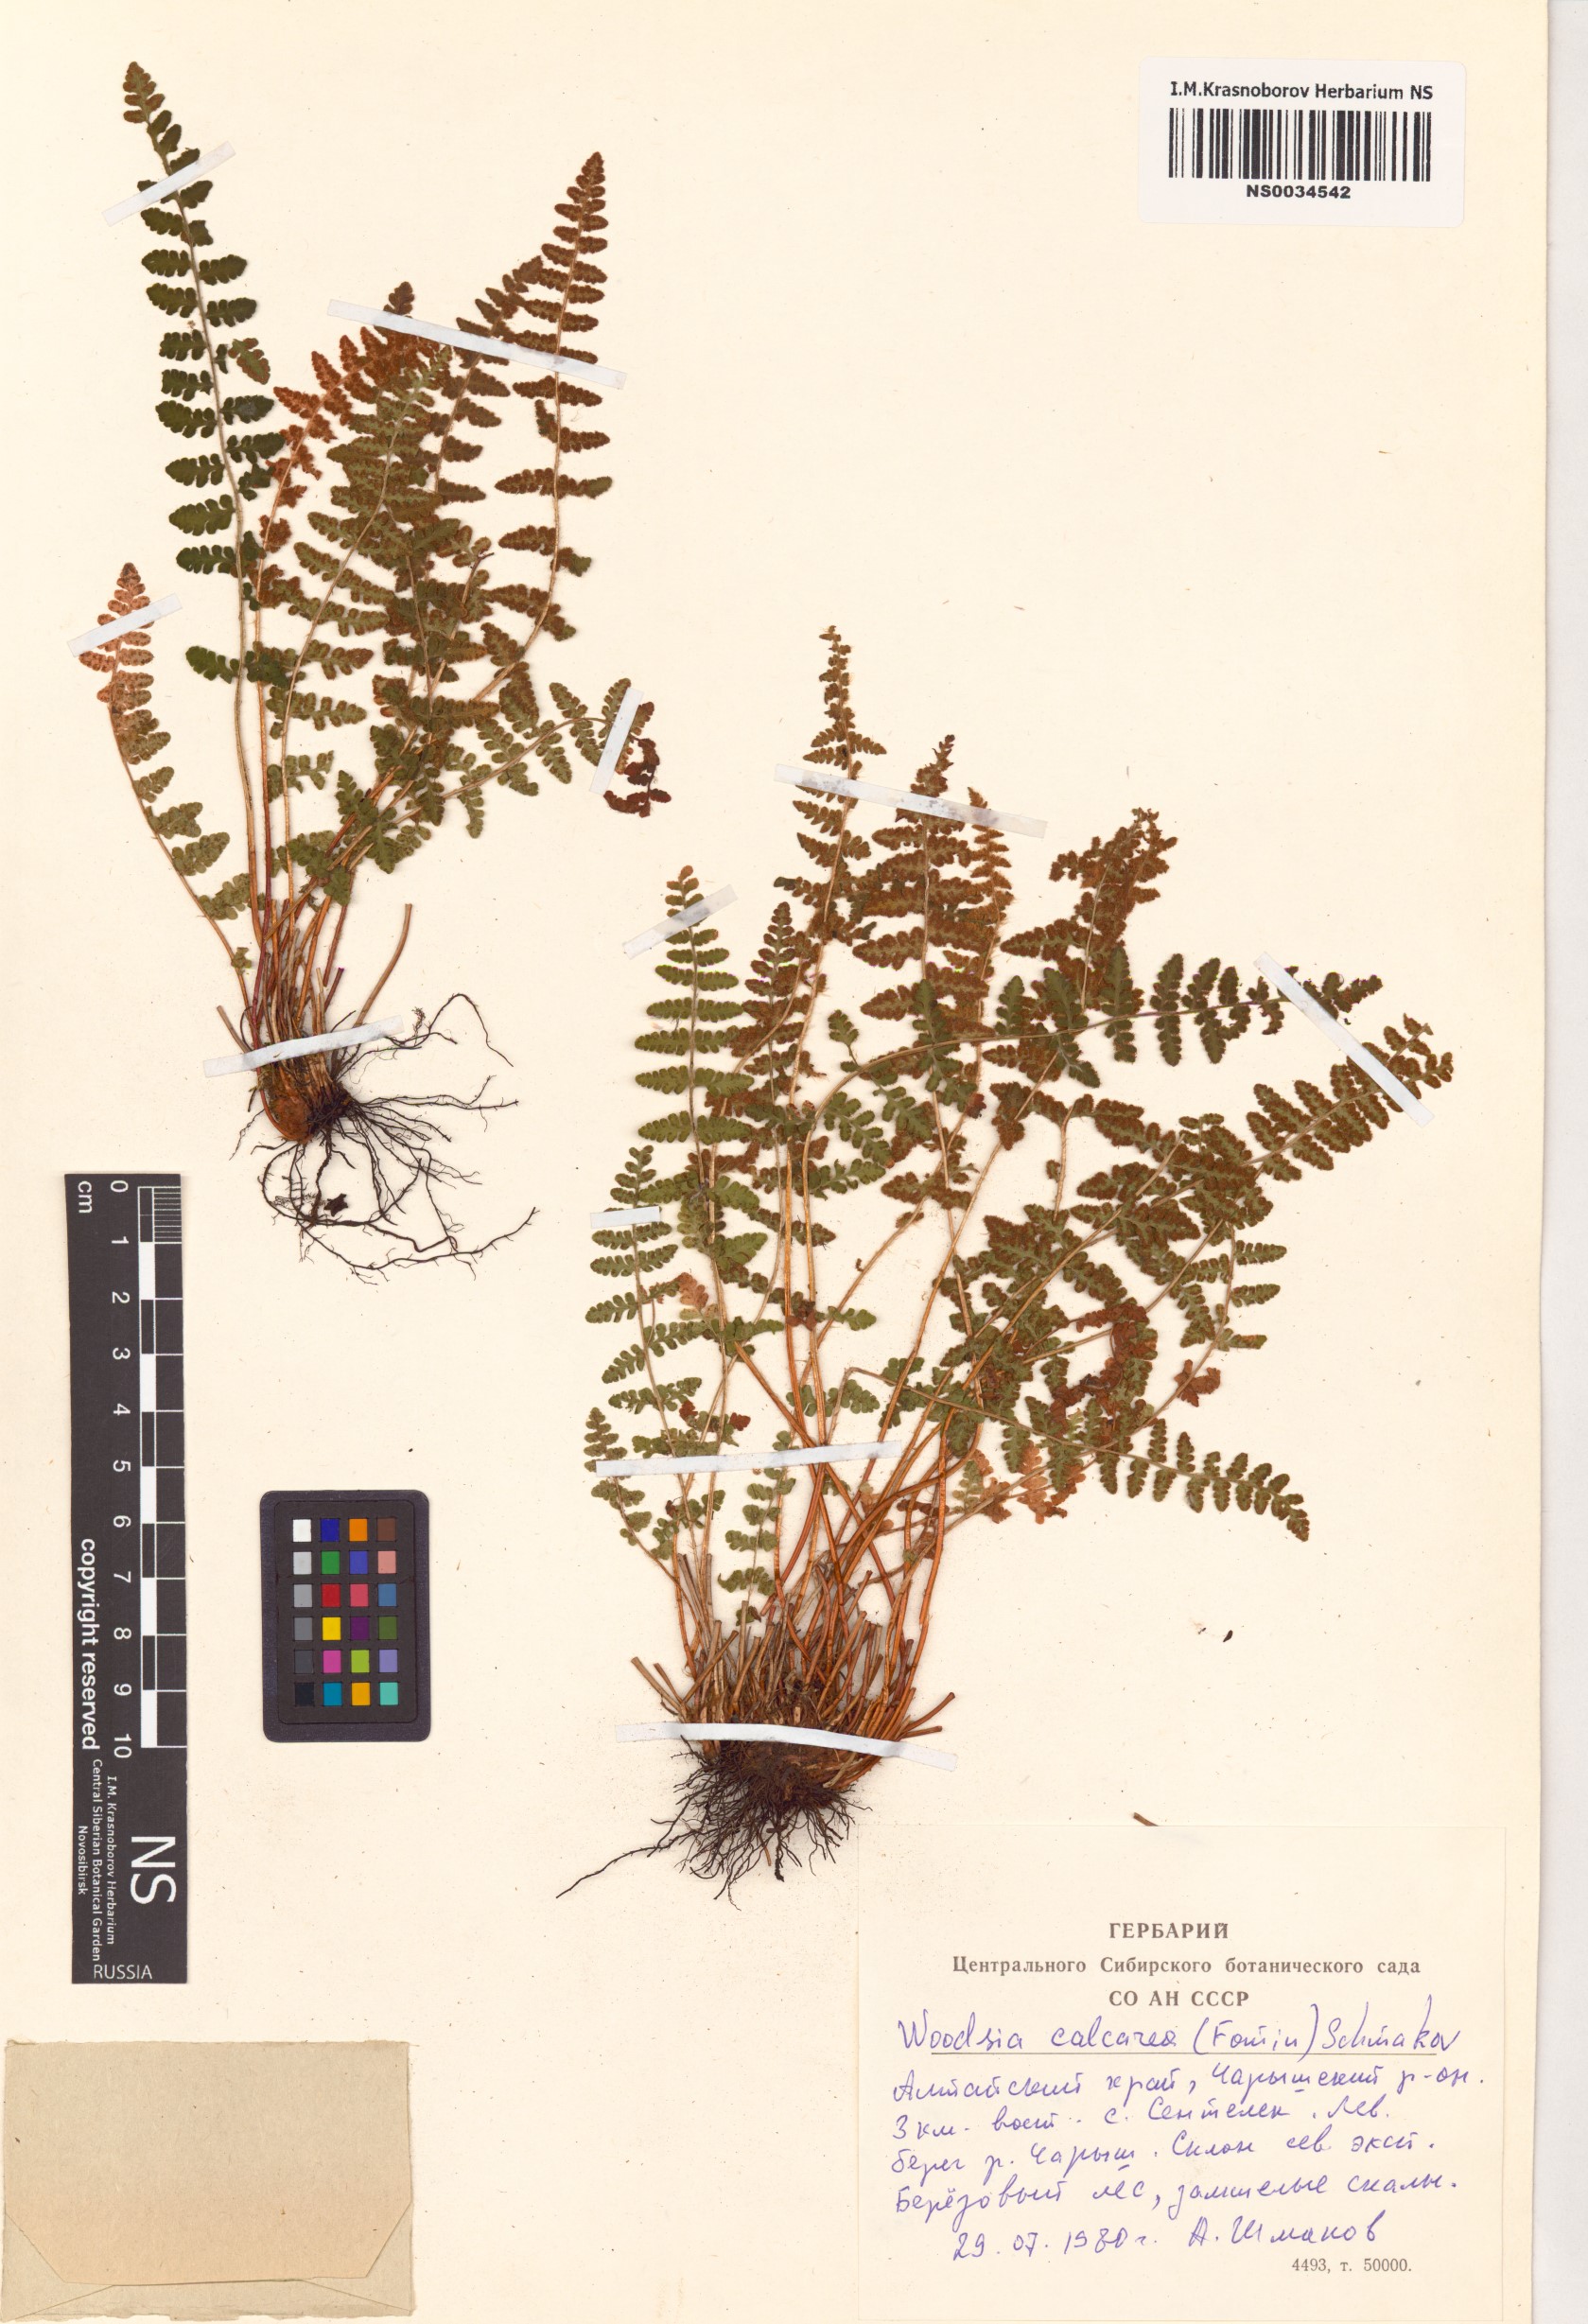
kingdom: Plantae
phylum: Tracheophyta
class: Polypodiopsida
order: Polypodiales
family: Woodsiaceae
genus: Woodsia
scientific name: Woodsia calcarea
